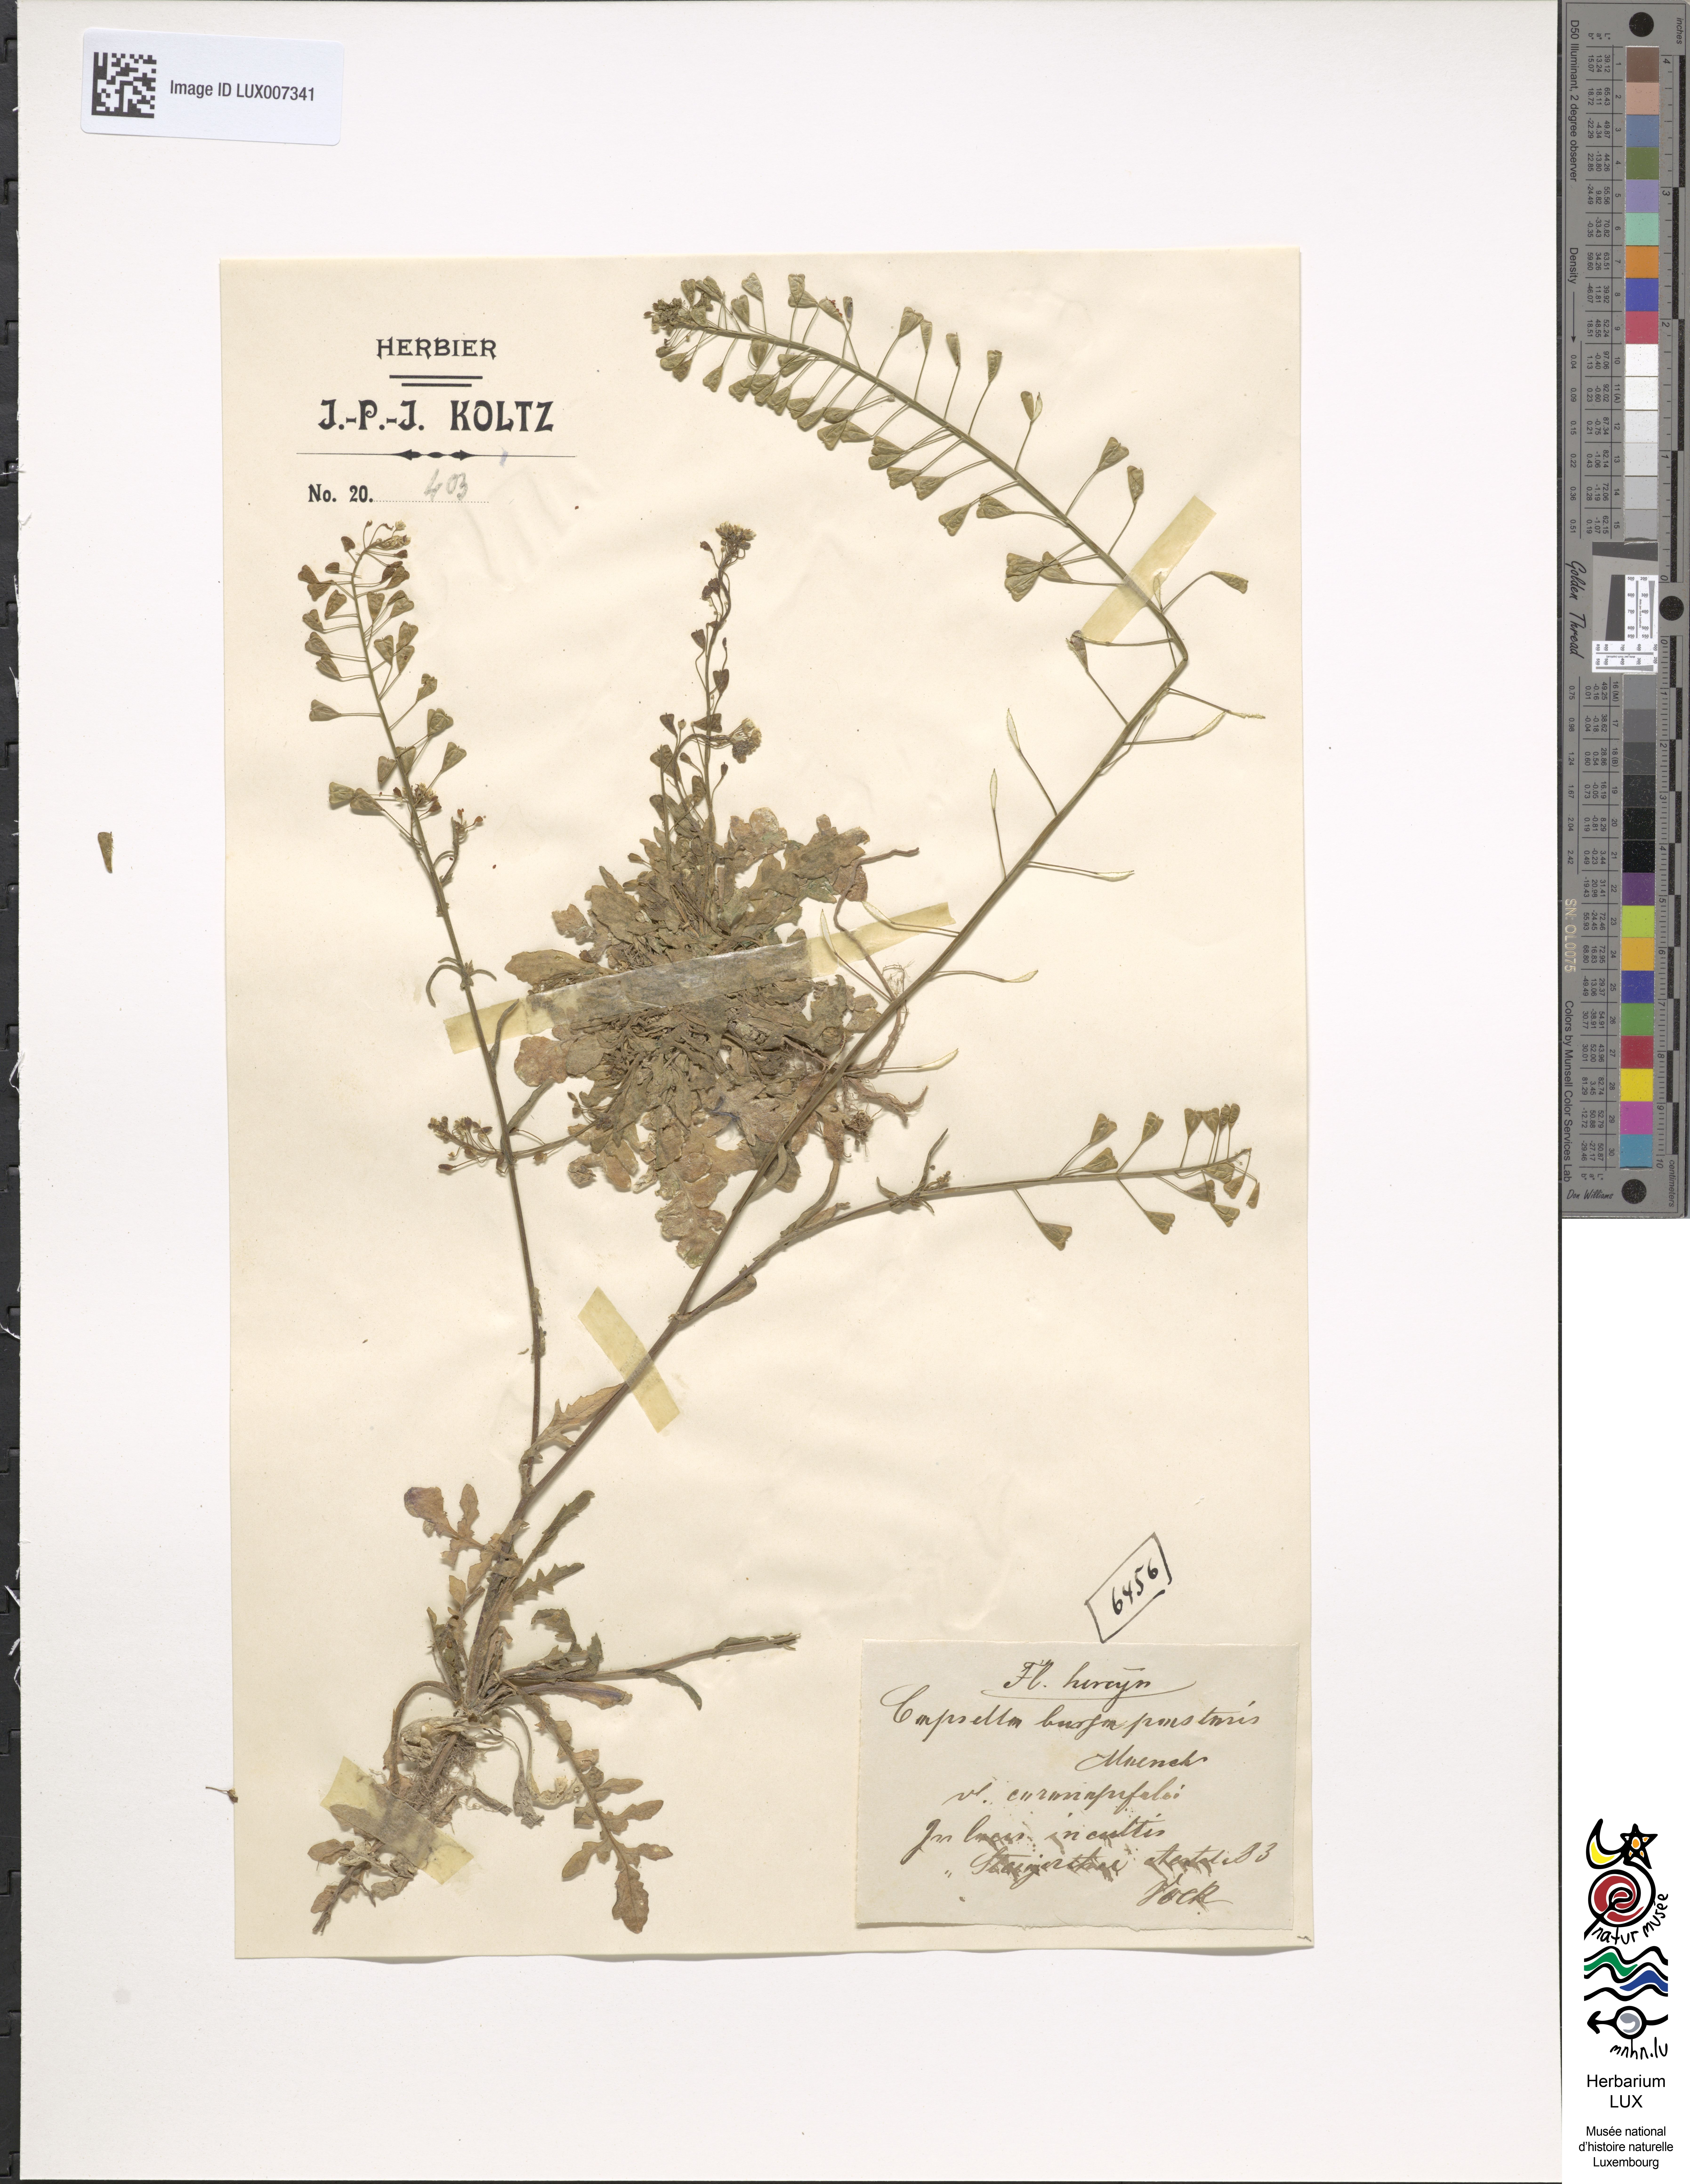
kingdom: Plantae
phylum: Tracheophyta
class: Magnoliopsida
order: Brassicales
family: Brassicaceae
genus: Capsella
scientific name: Capsella bursa-pastoris
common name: Shepherd's purse
